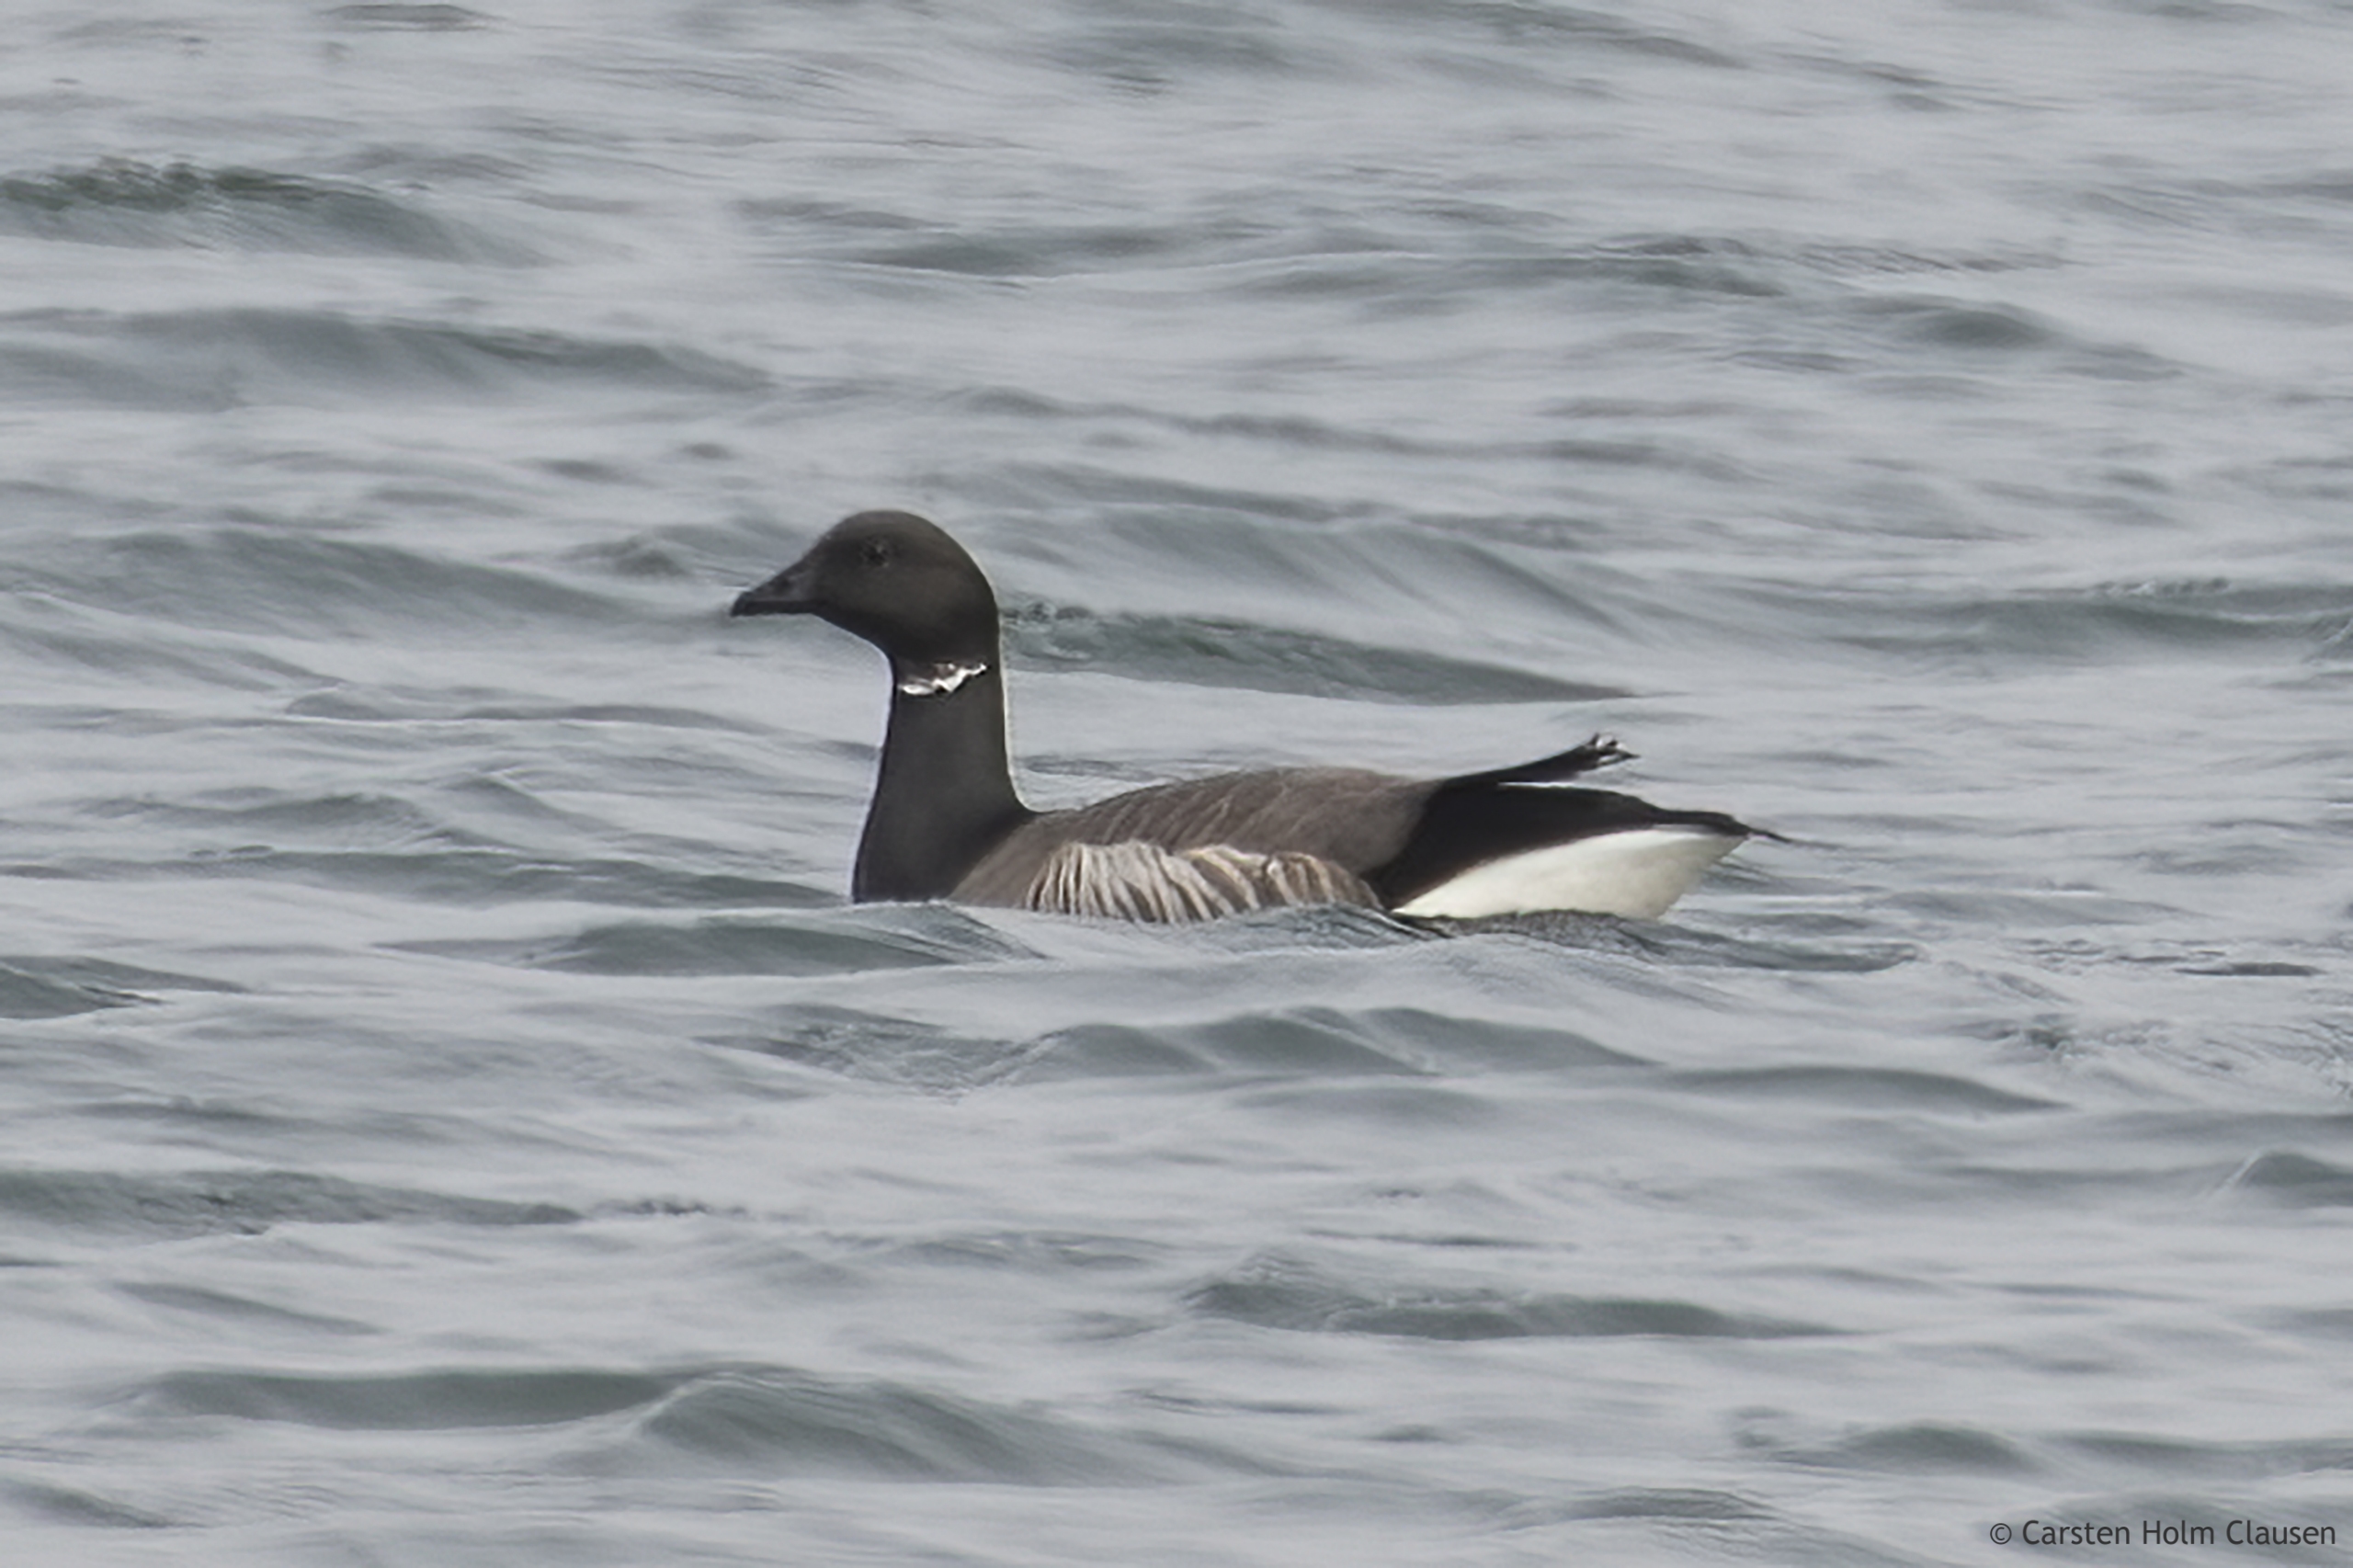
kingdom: Animalia
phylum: Chordata
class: Aves
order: Anseriformes
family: Anatidae
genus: Branta
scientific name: Branta bernicla
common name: Knortegås
